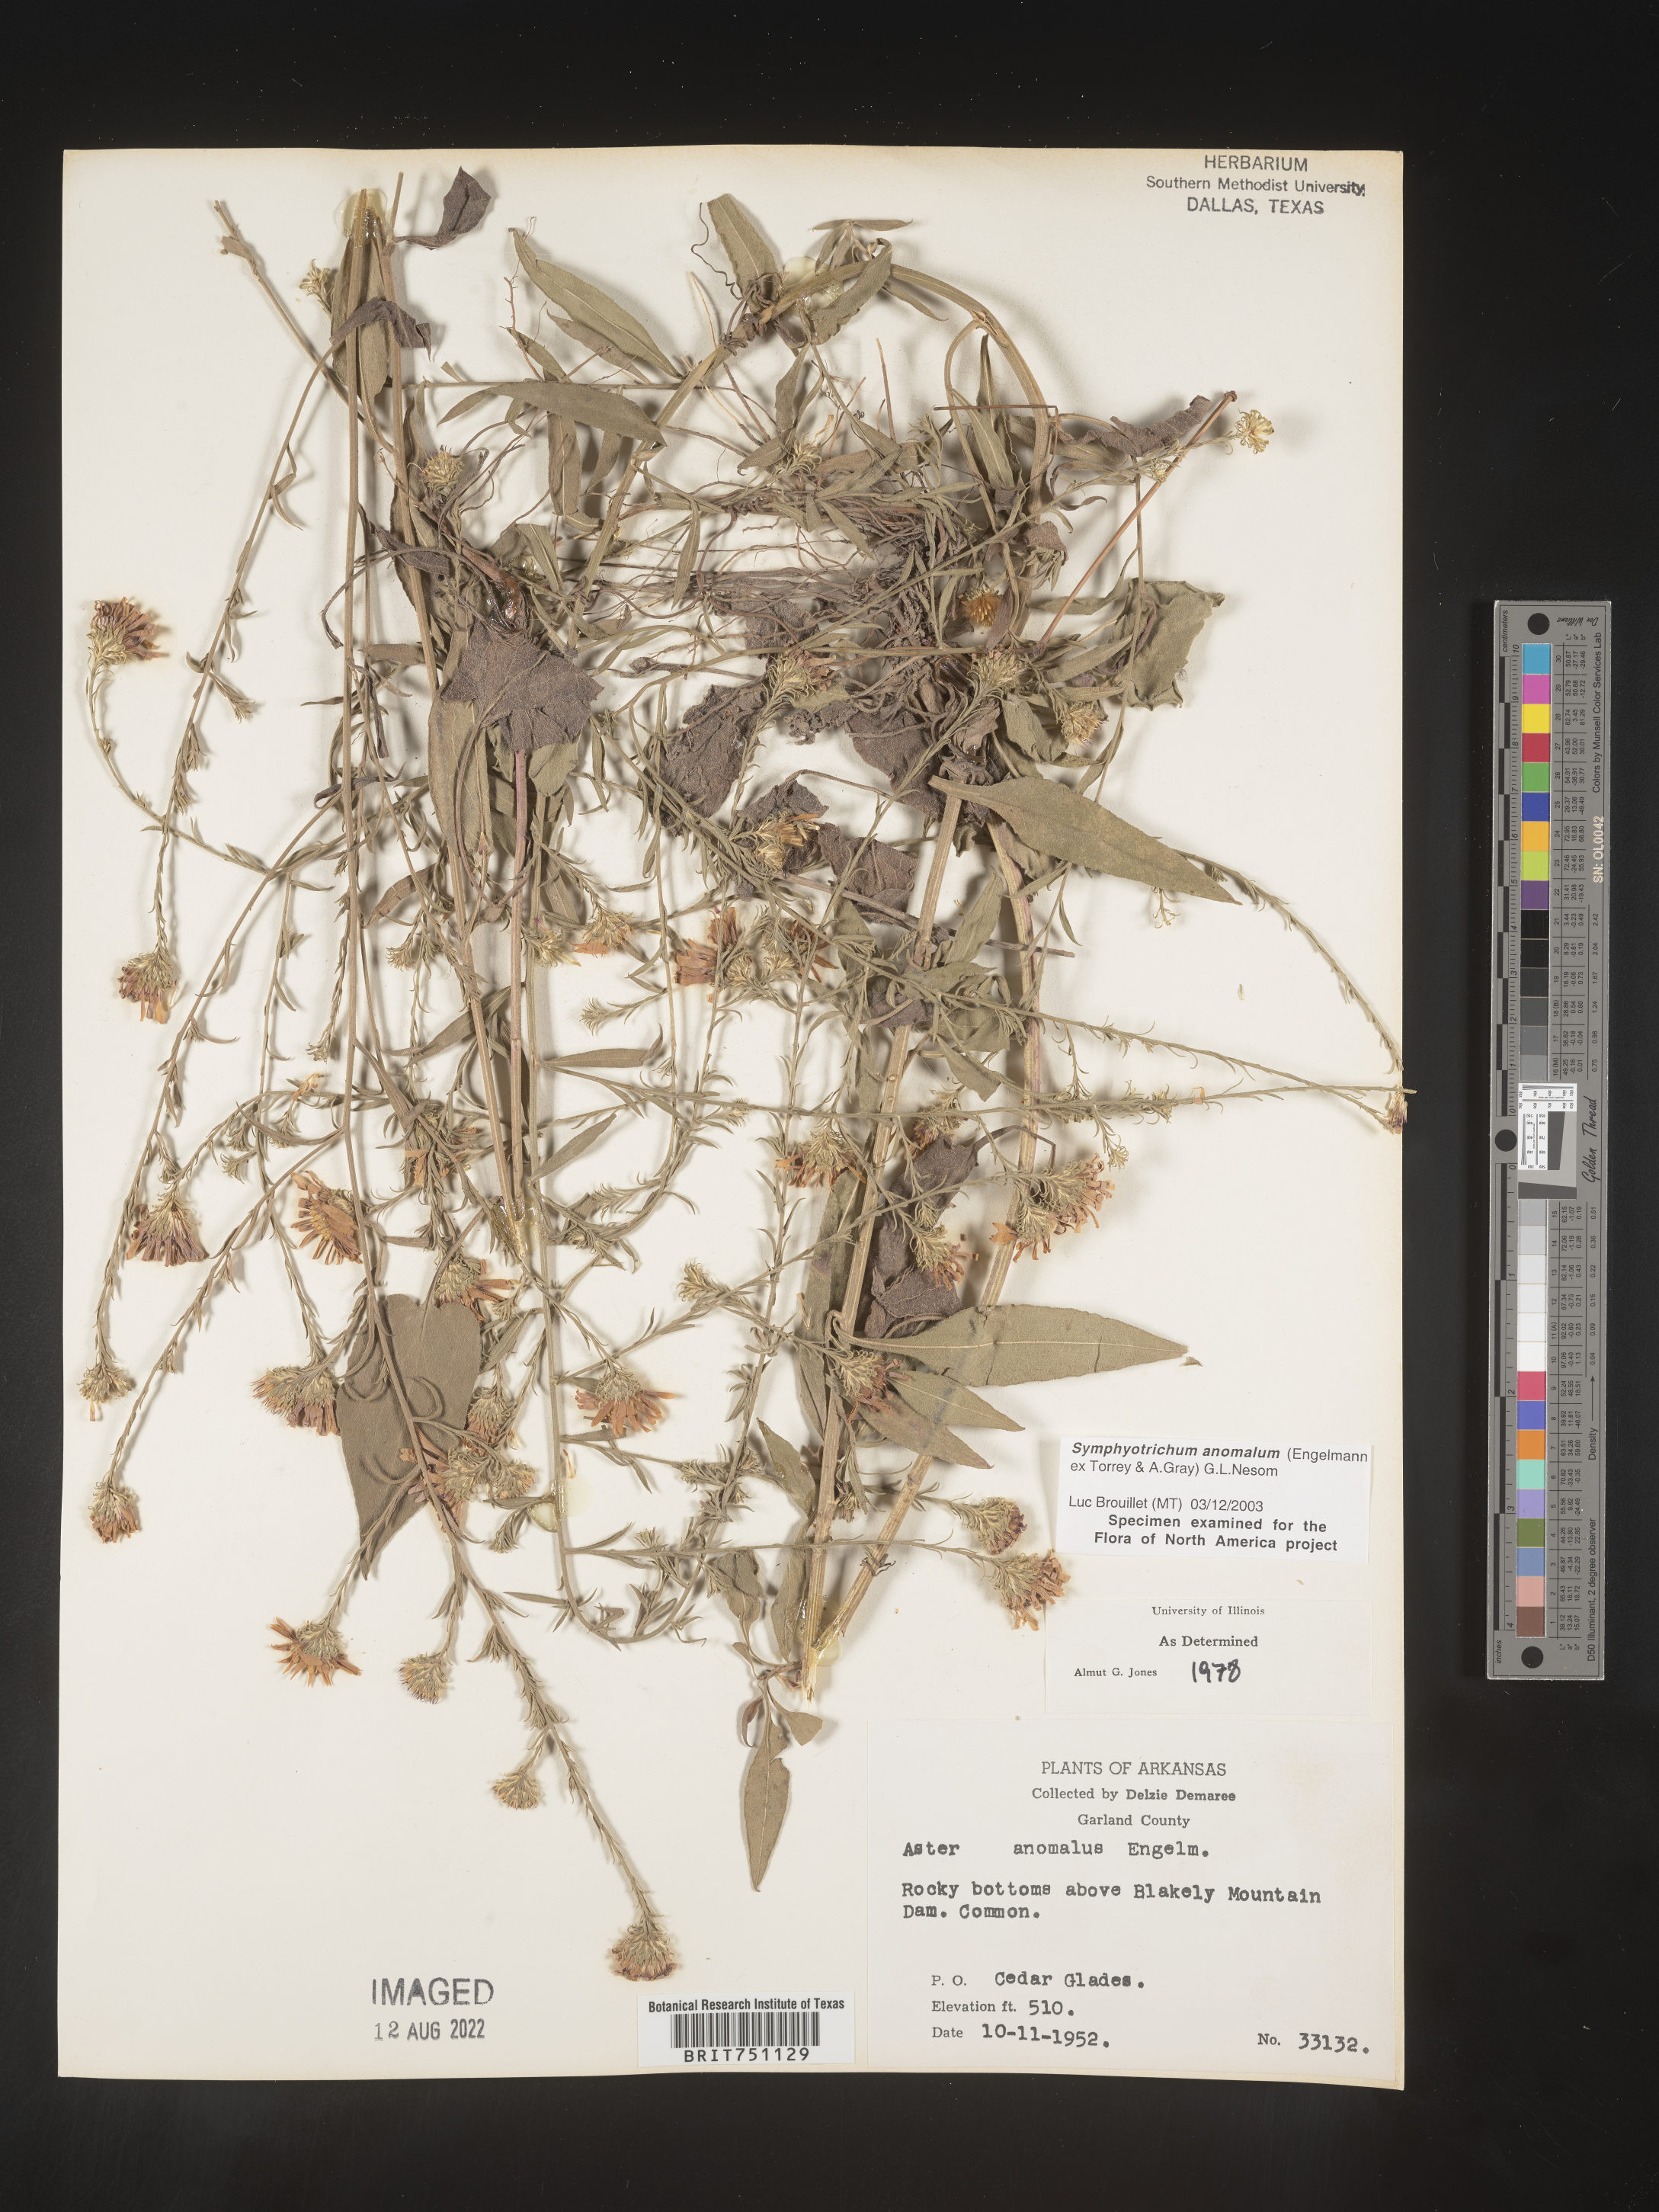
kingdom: Plantae
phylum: Tracheophyta
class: Magnoliopsida
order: Asterales
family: Asteraceae
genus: Symphyotrichum
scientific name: Symphyotrichum anomalum
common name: Many-ray aster
